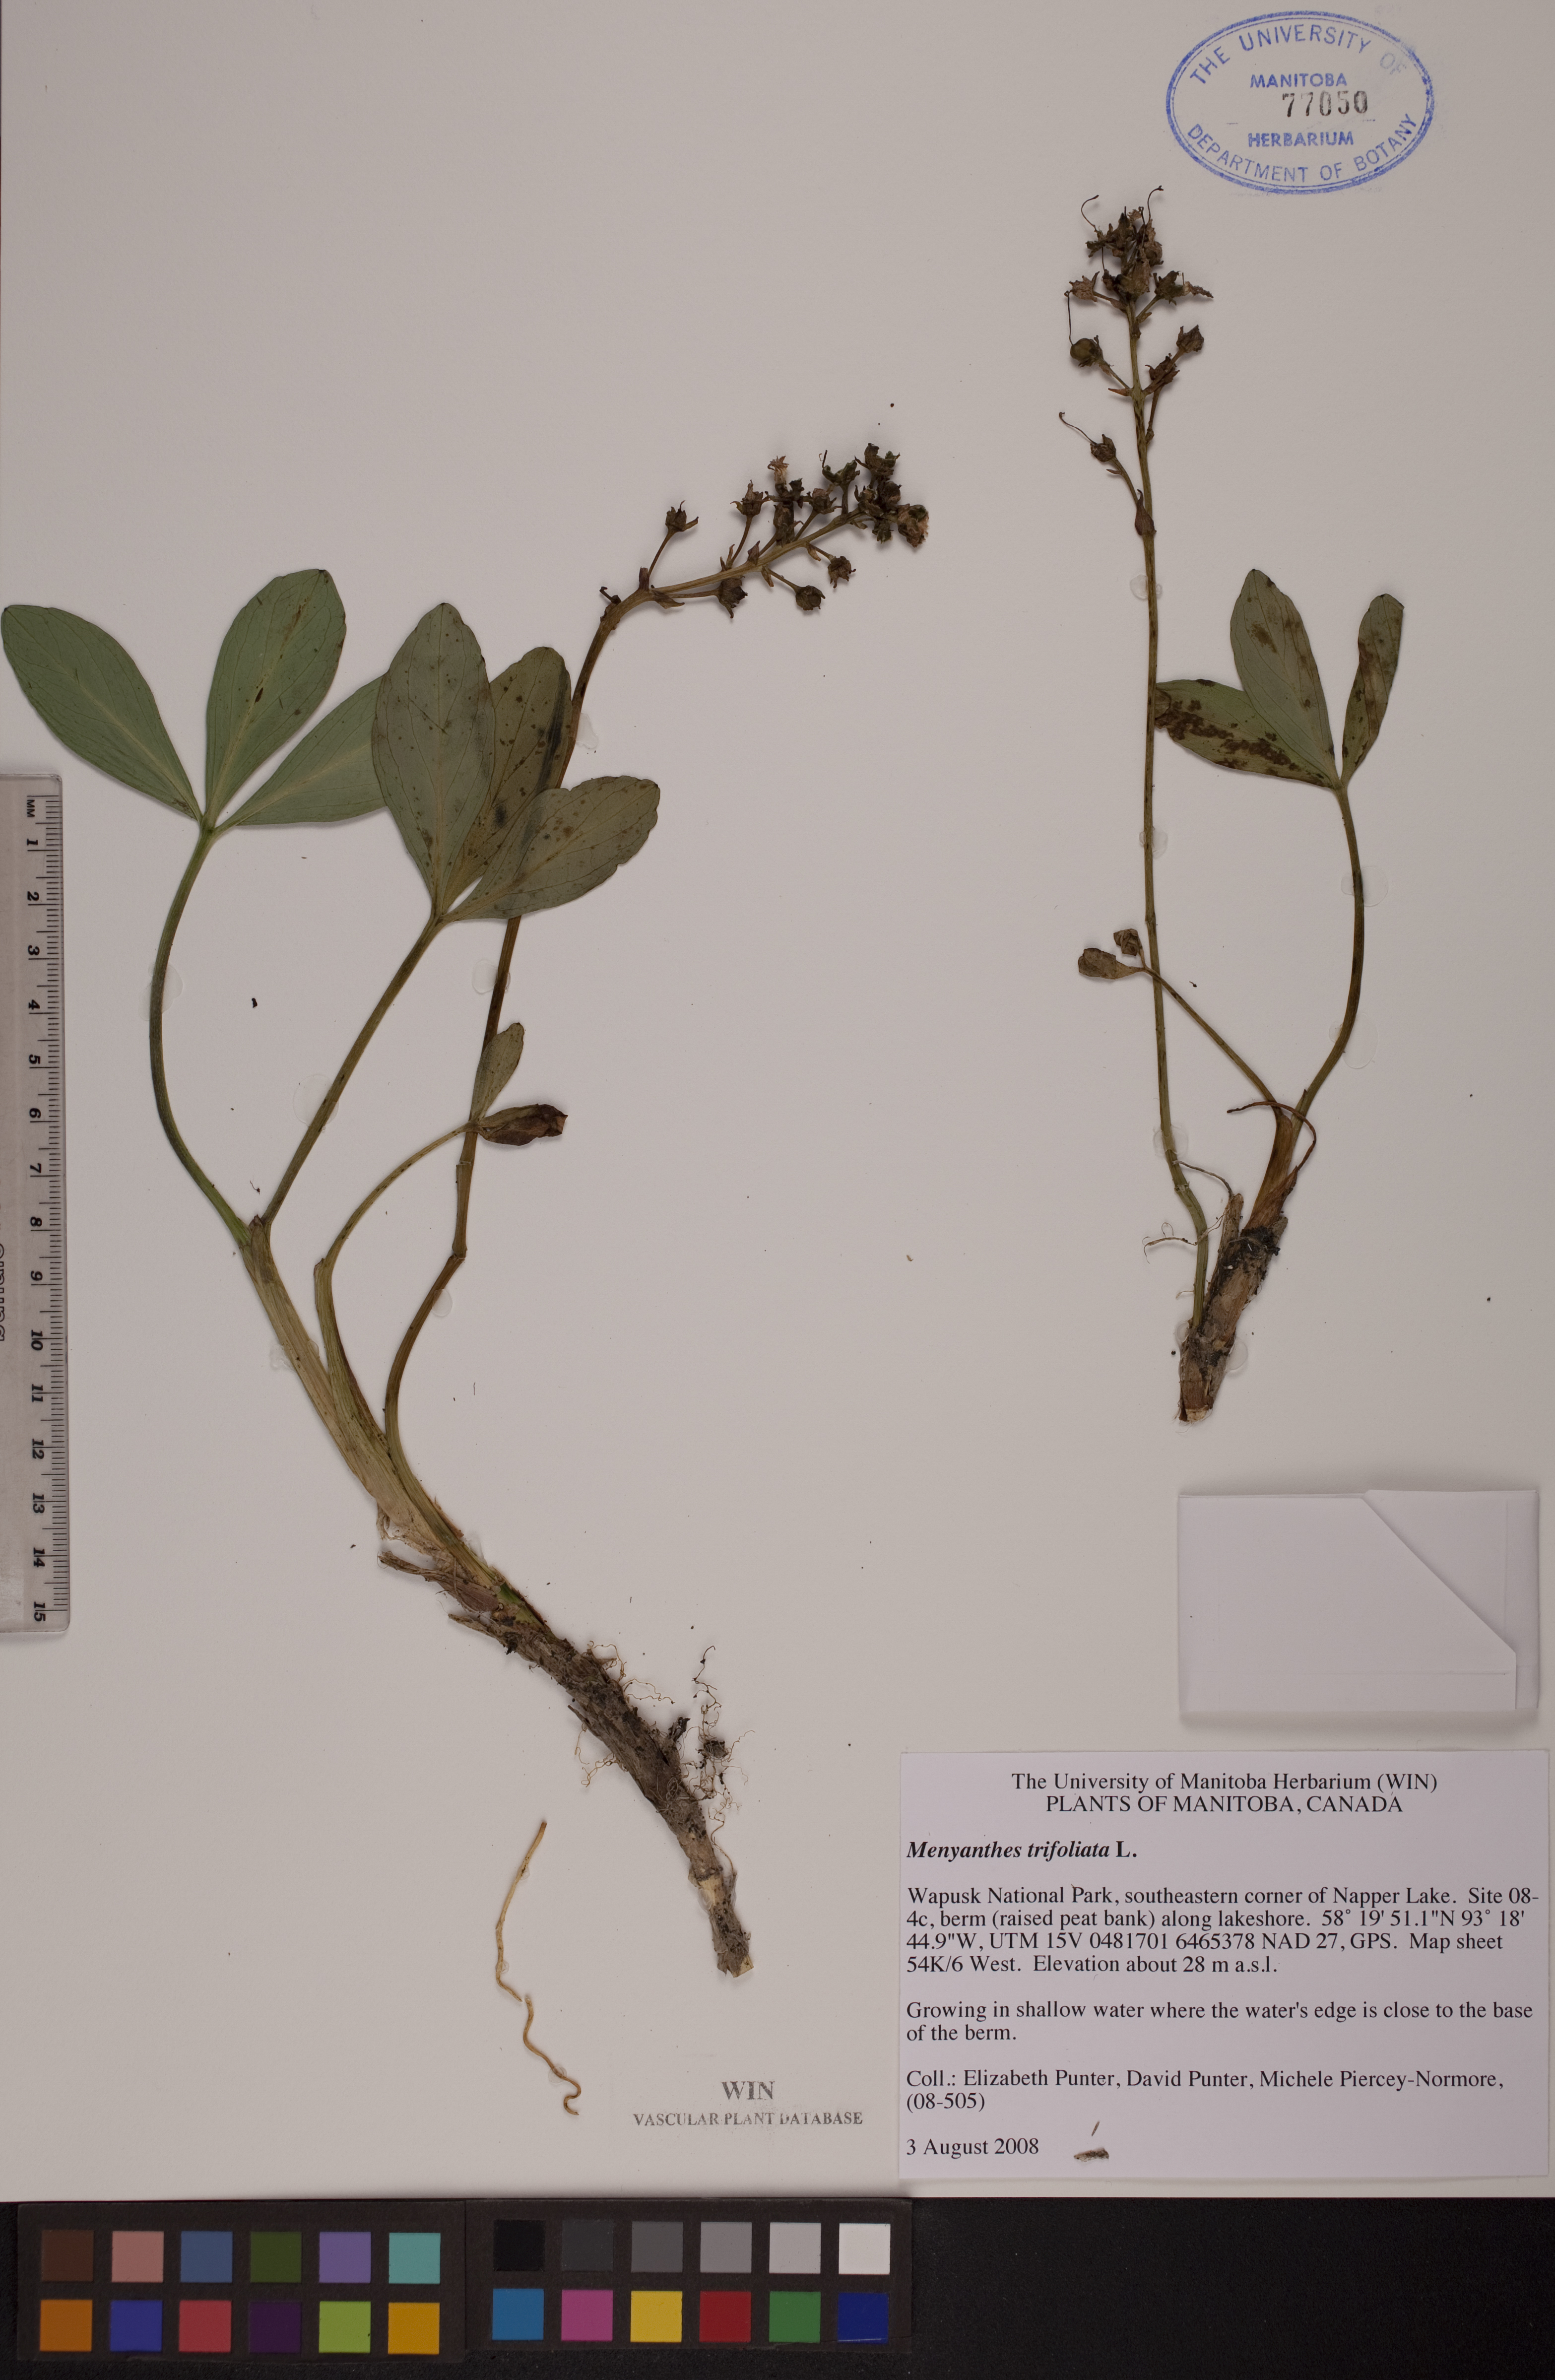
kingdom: Plantae
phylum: Tracheophyta
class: Magnoliopsida
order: Asterales
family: Menyanthaceae
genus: Menyanthes
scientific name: Menyanthes trifoliata
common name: Bogbean
